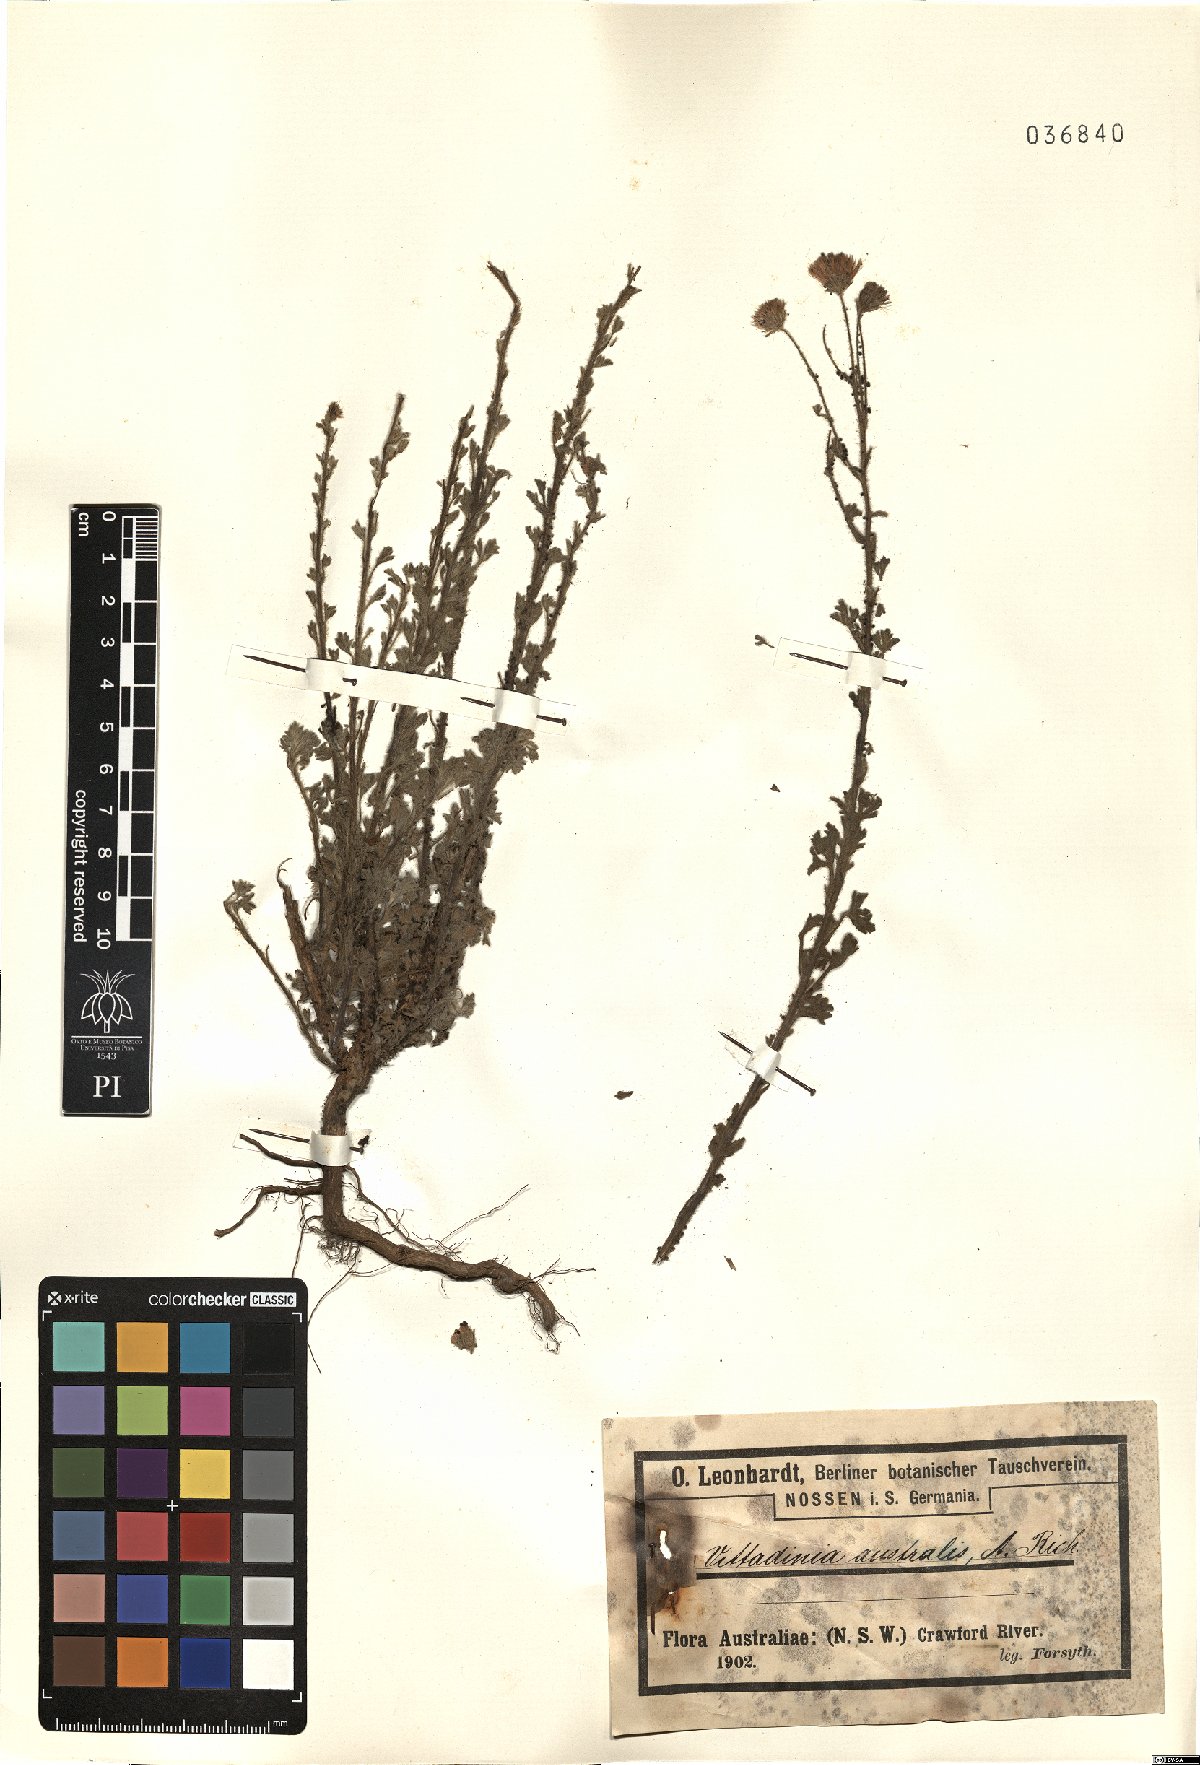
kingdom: Plantae
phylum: Tracheophyta
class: Magnoliopsida
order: Asterales
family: Asteraceae
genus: Vittadinia
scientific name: Vittadinia australis
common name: White fuzzweed
